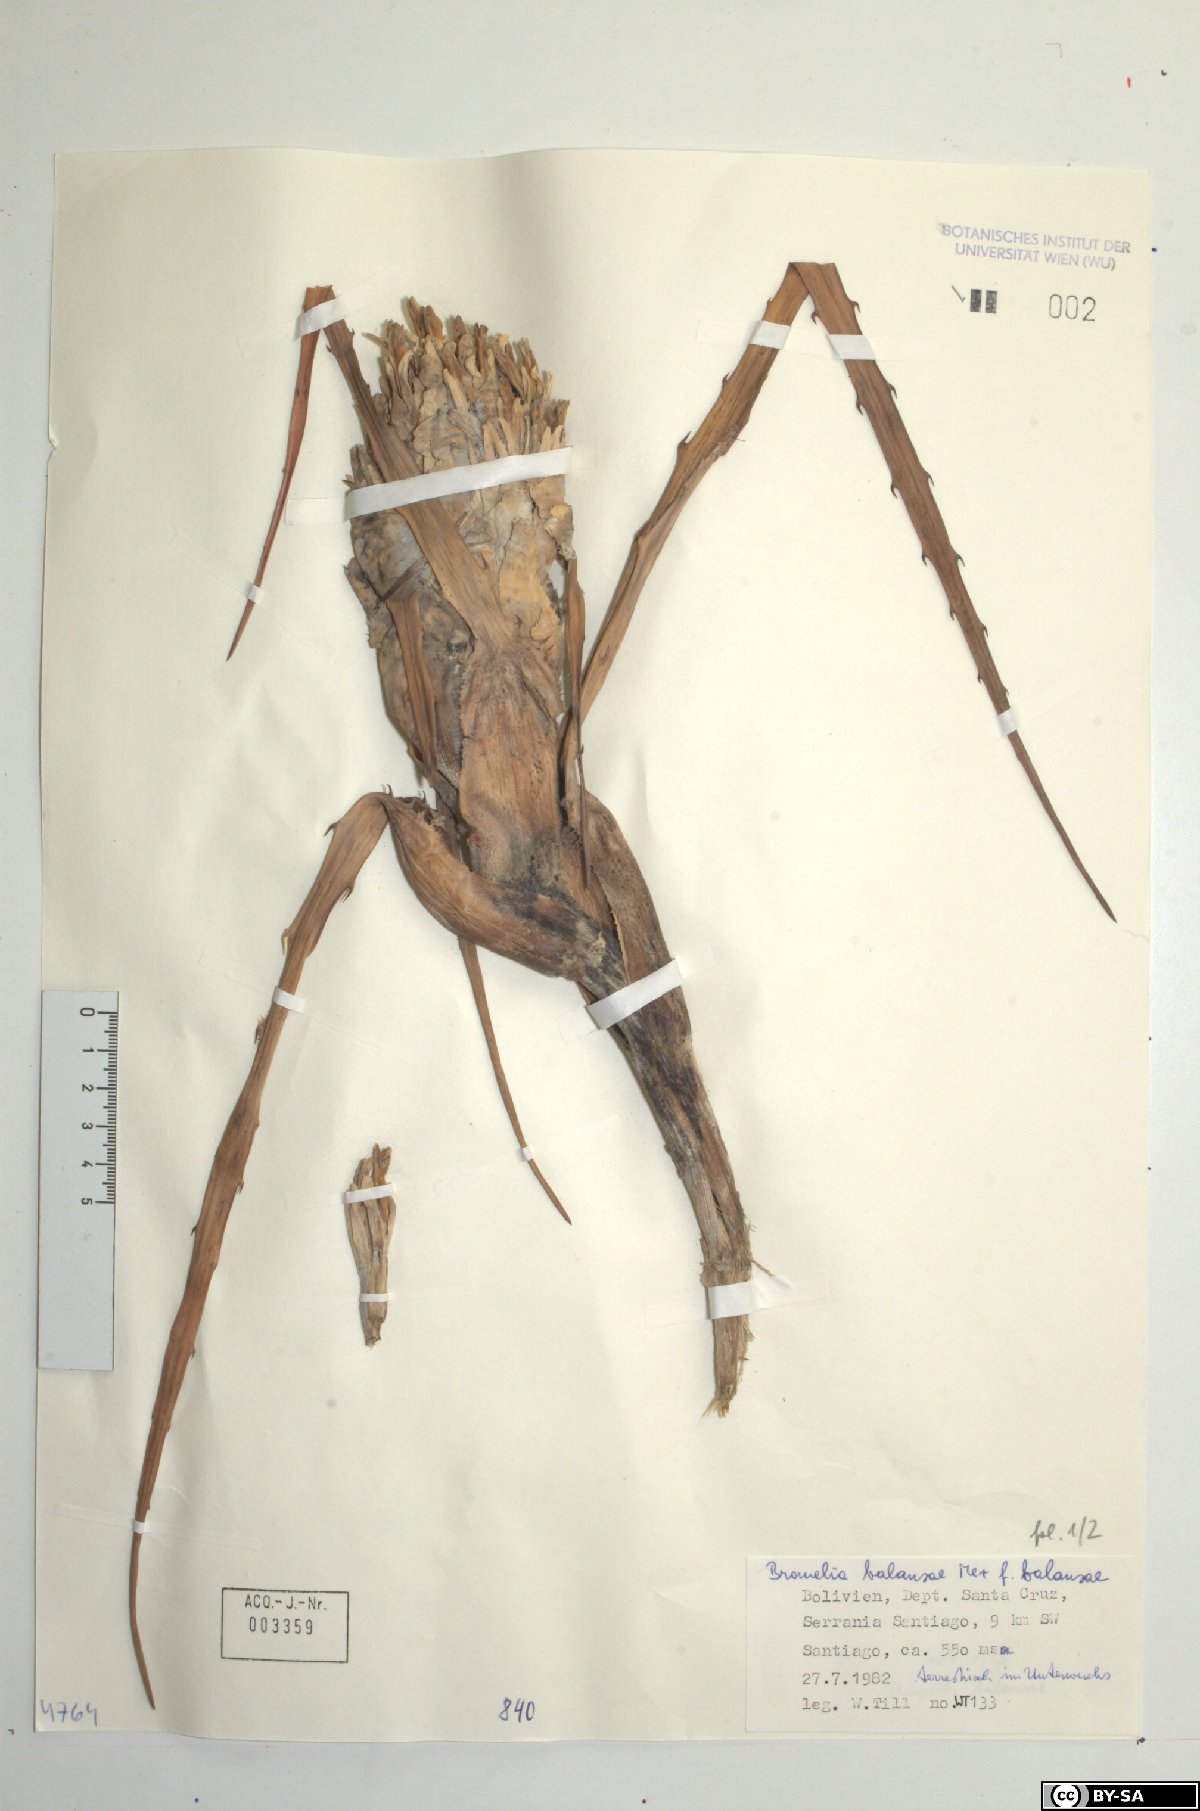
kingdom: Plantae
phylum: Tracheophyta
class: Liliopsida
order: Poales
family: Bromeliaceae
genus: Bromelia
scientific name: Bromelia balansae
